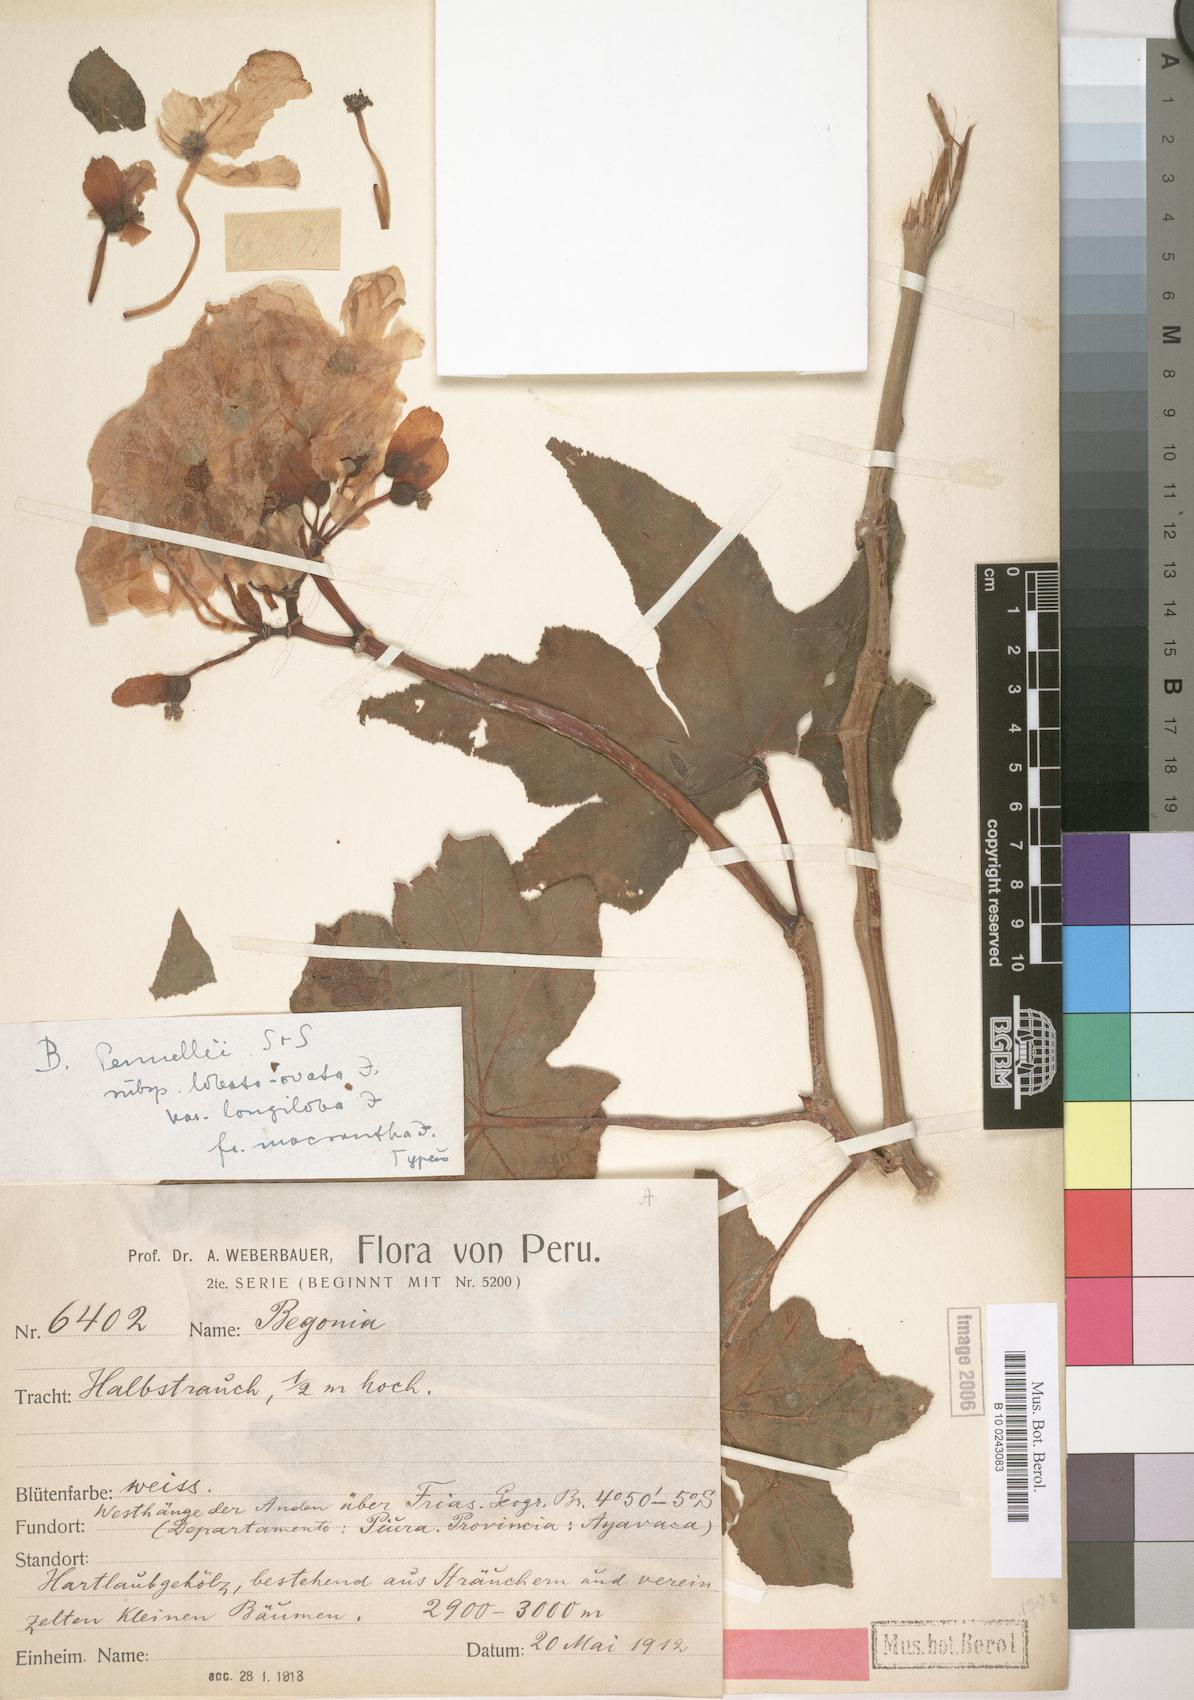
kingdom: Plantae
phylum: Tracheophyta
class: Magnoliopsida
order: Cucurbitales
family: Begoniaceae
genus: Begonia
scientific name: Begonia acerifolia
